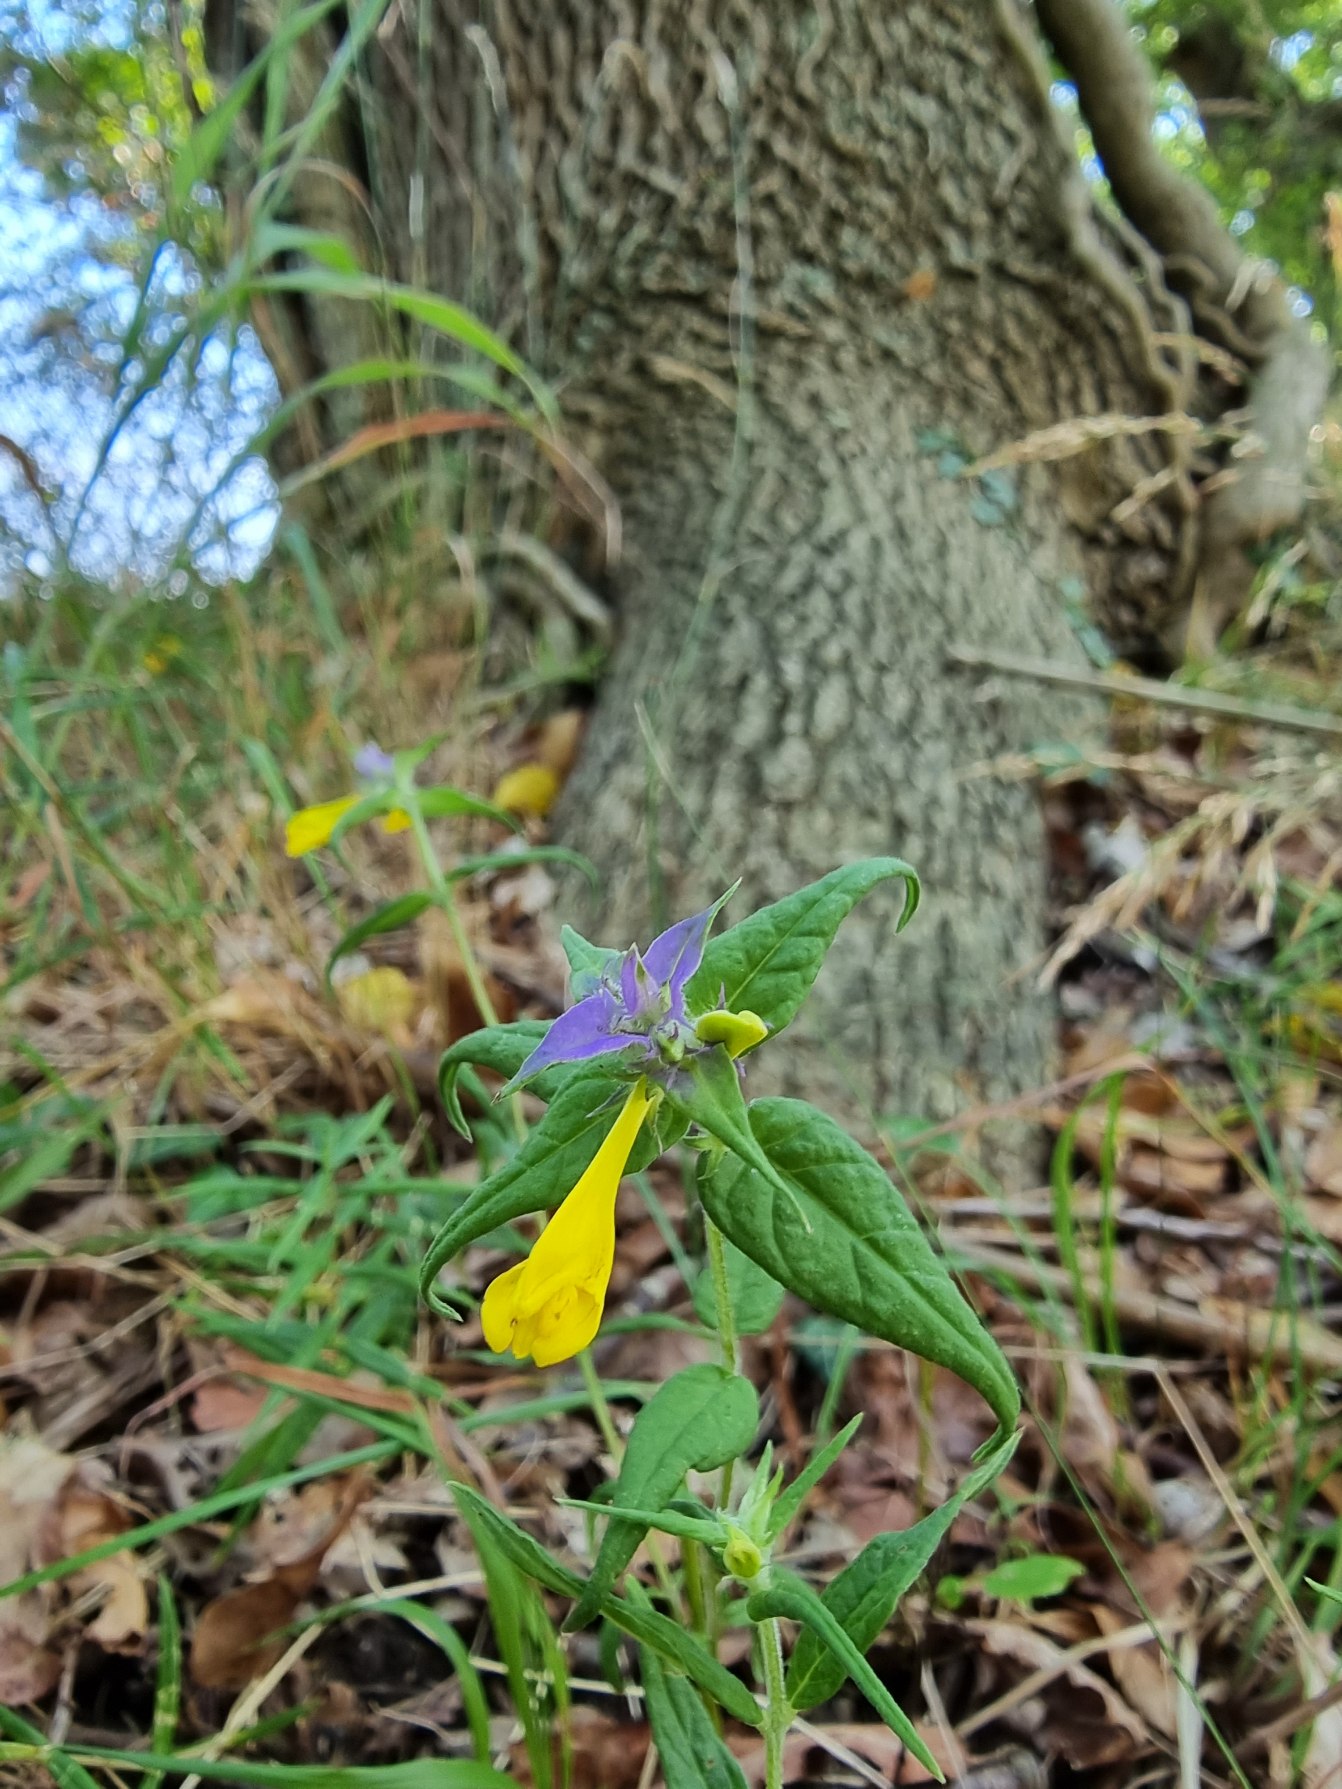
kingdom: Plantae
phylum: Tracheophyta
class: Magnoliopsida
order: Lamiales
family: Orobanchaceae
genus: Melampyrum
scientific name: Melampyrum nemorosum
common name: Blåtoppet kohvede
